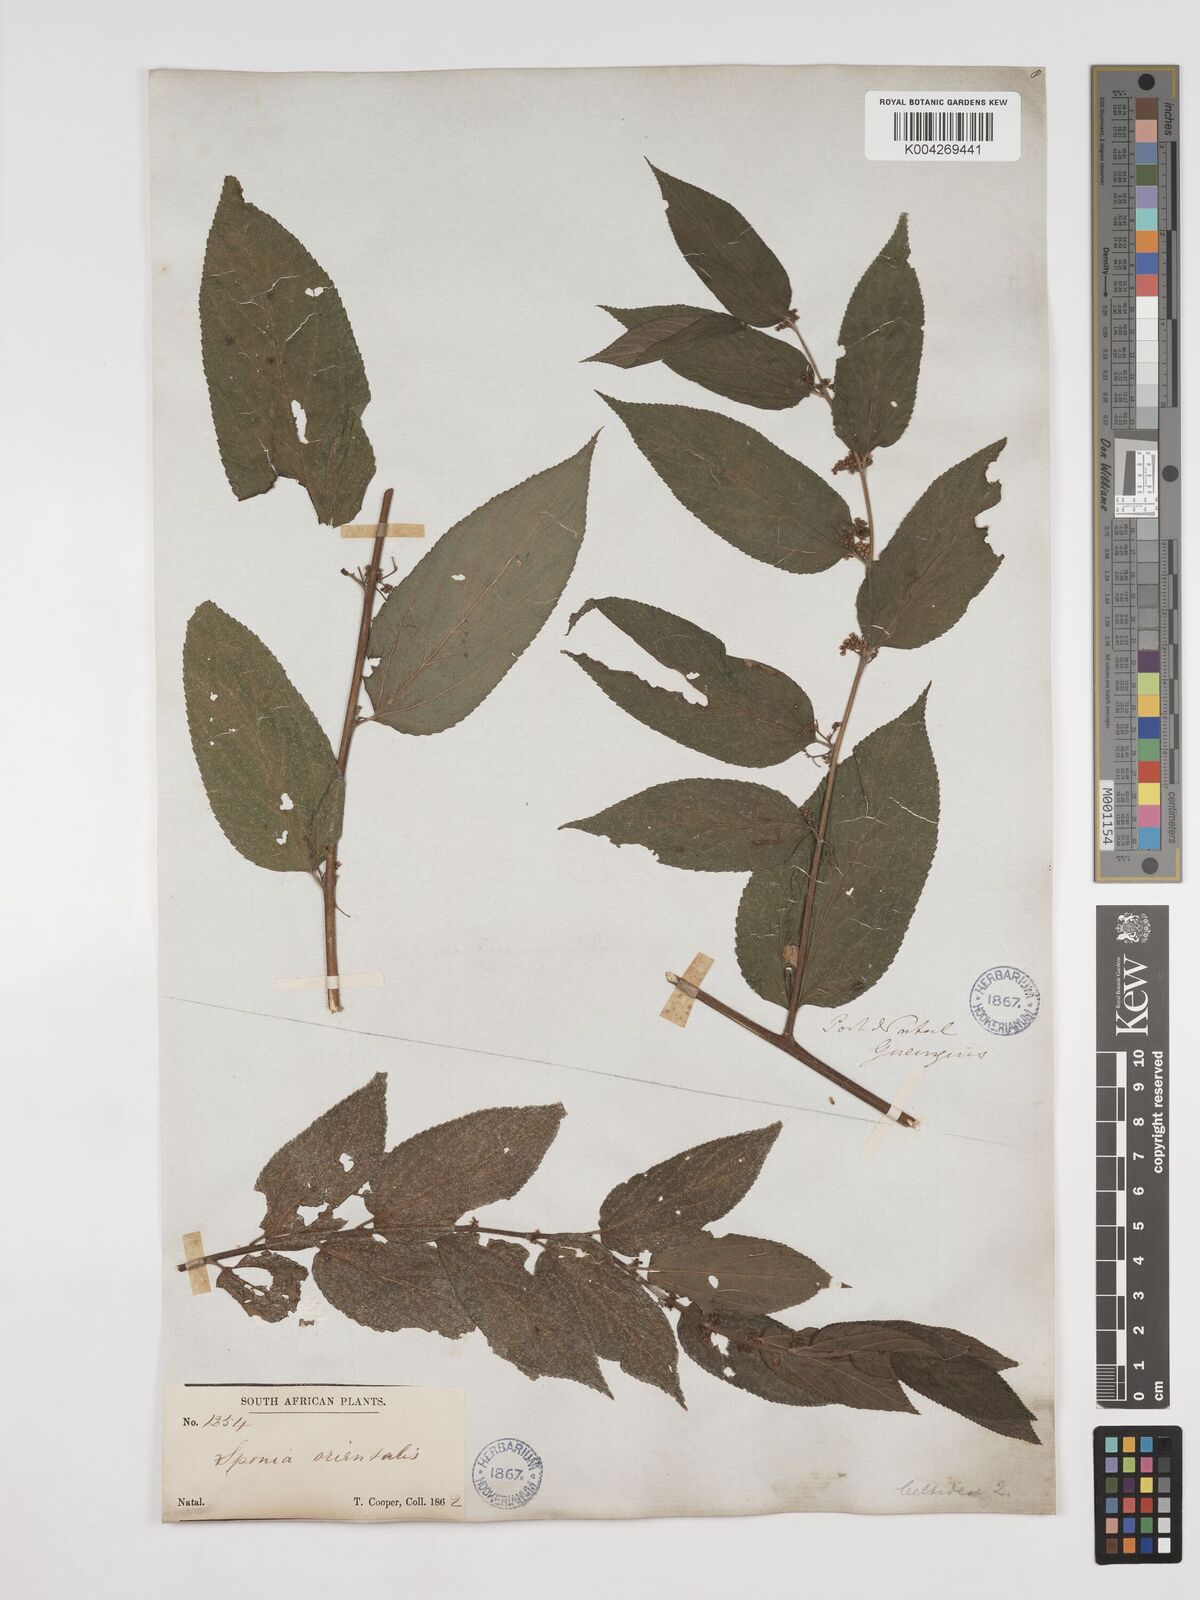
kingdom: Plantae
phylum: Tracheophyta
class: Magnoliopsida
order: Rosales
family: Cannabaceae
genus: Trema
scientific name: Trema orientale
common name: Indian charcoal tree
